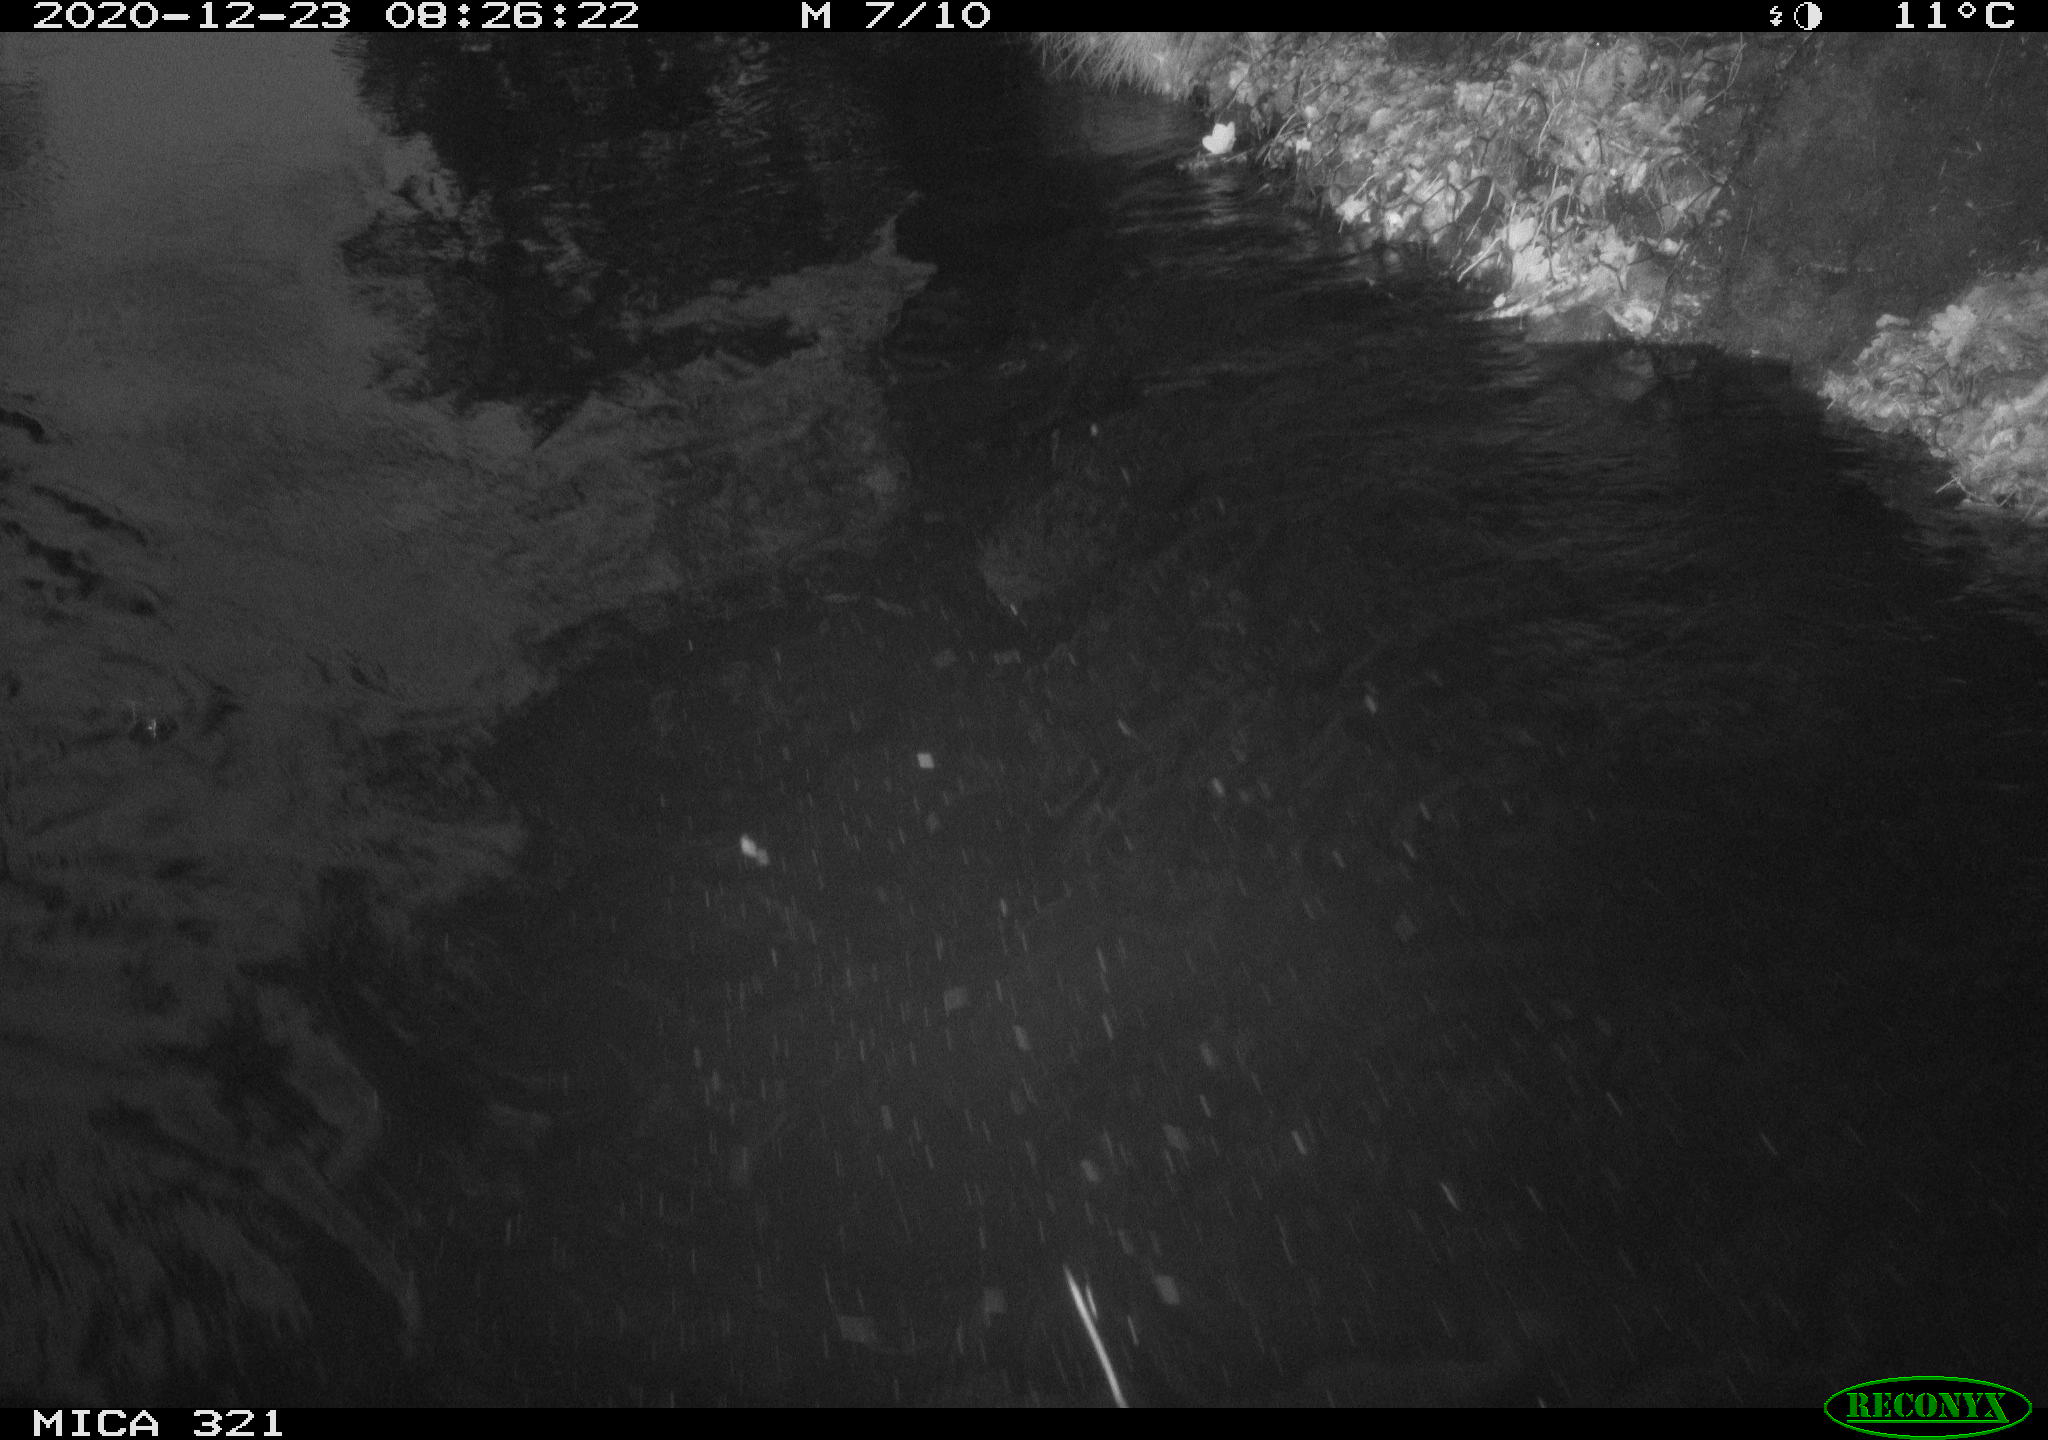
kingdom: Animalia
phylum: Chordata
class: Aves
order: Anseriformes
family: Anatidae
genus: Anas
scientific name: Anas platyrhynchos
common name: Mallard
